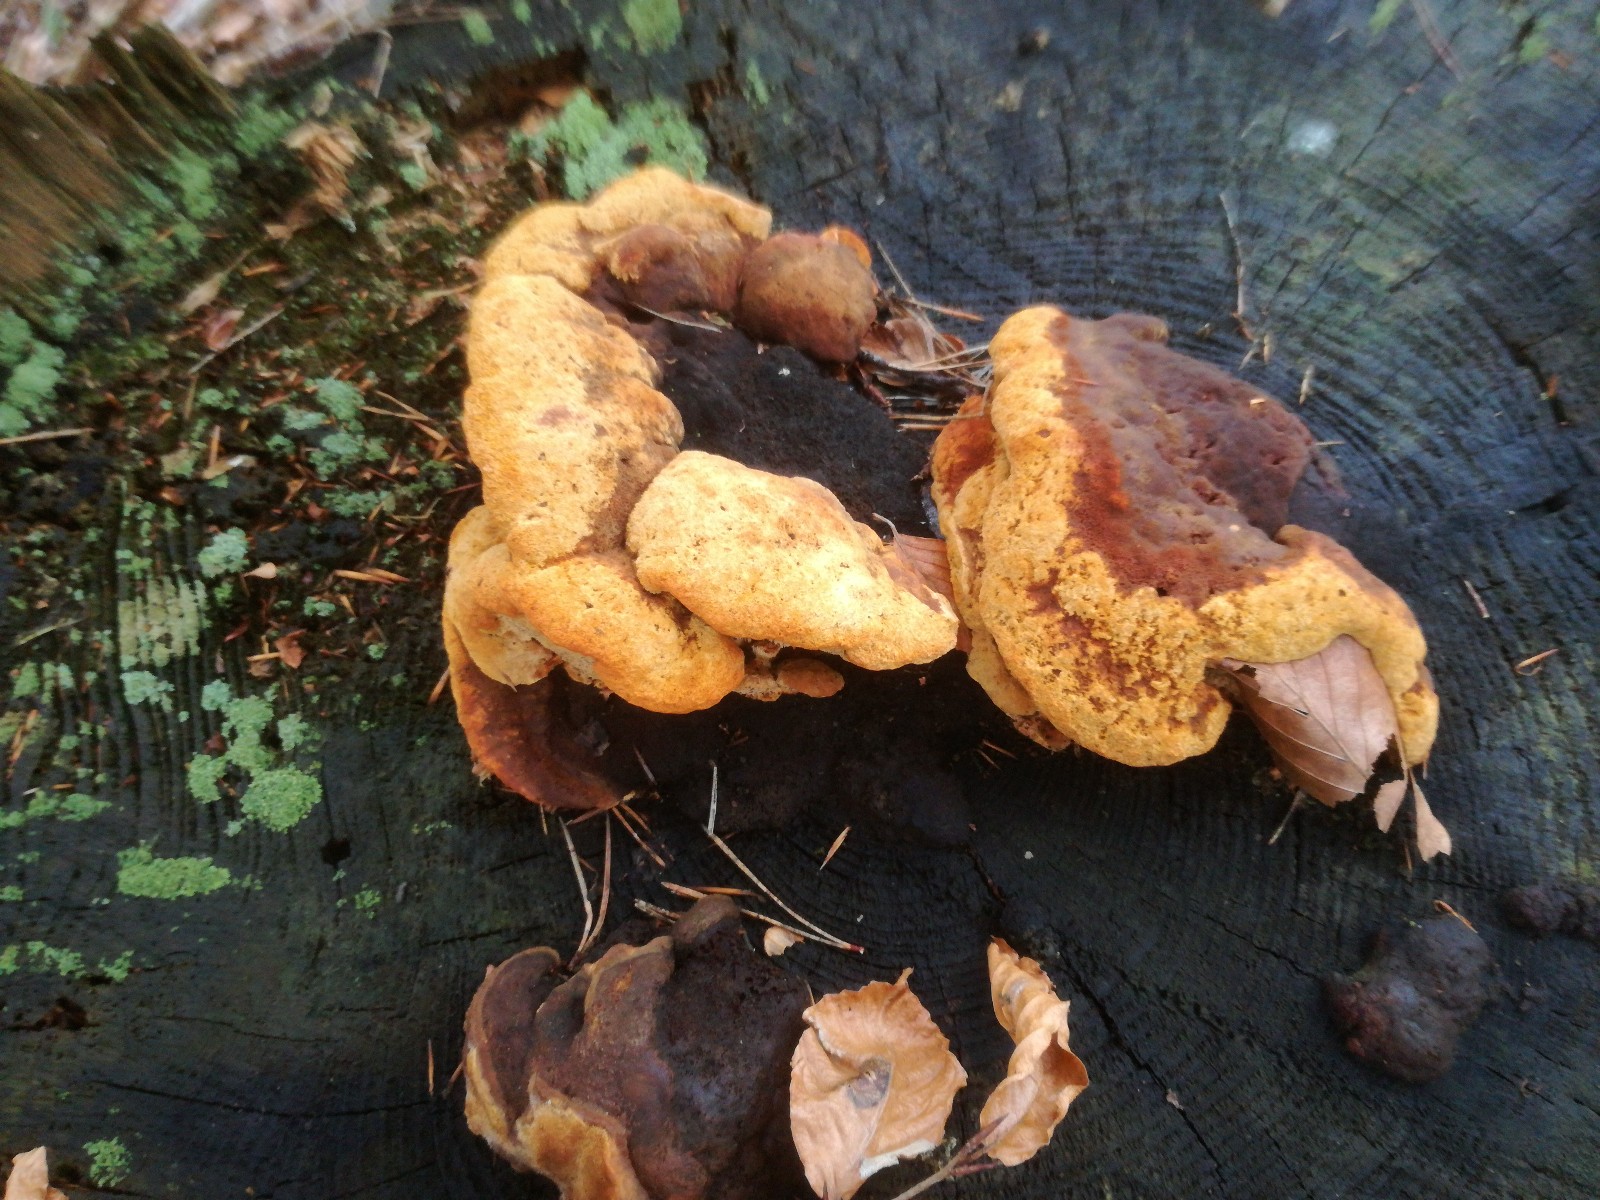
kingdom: Fungi
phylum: Basidiomycota
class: Agaricomycetes
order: Gloeophyllales
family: Gloeophyllaceae
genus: Gloeophyllum
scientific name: Gloeophyllum odoratum
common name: duftende korkhat
